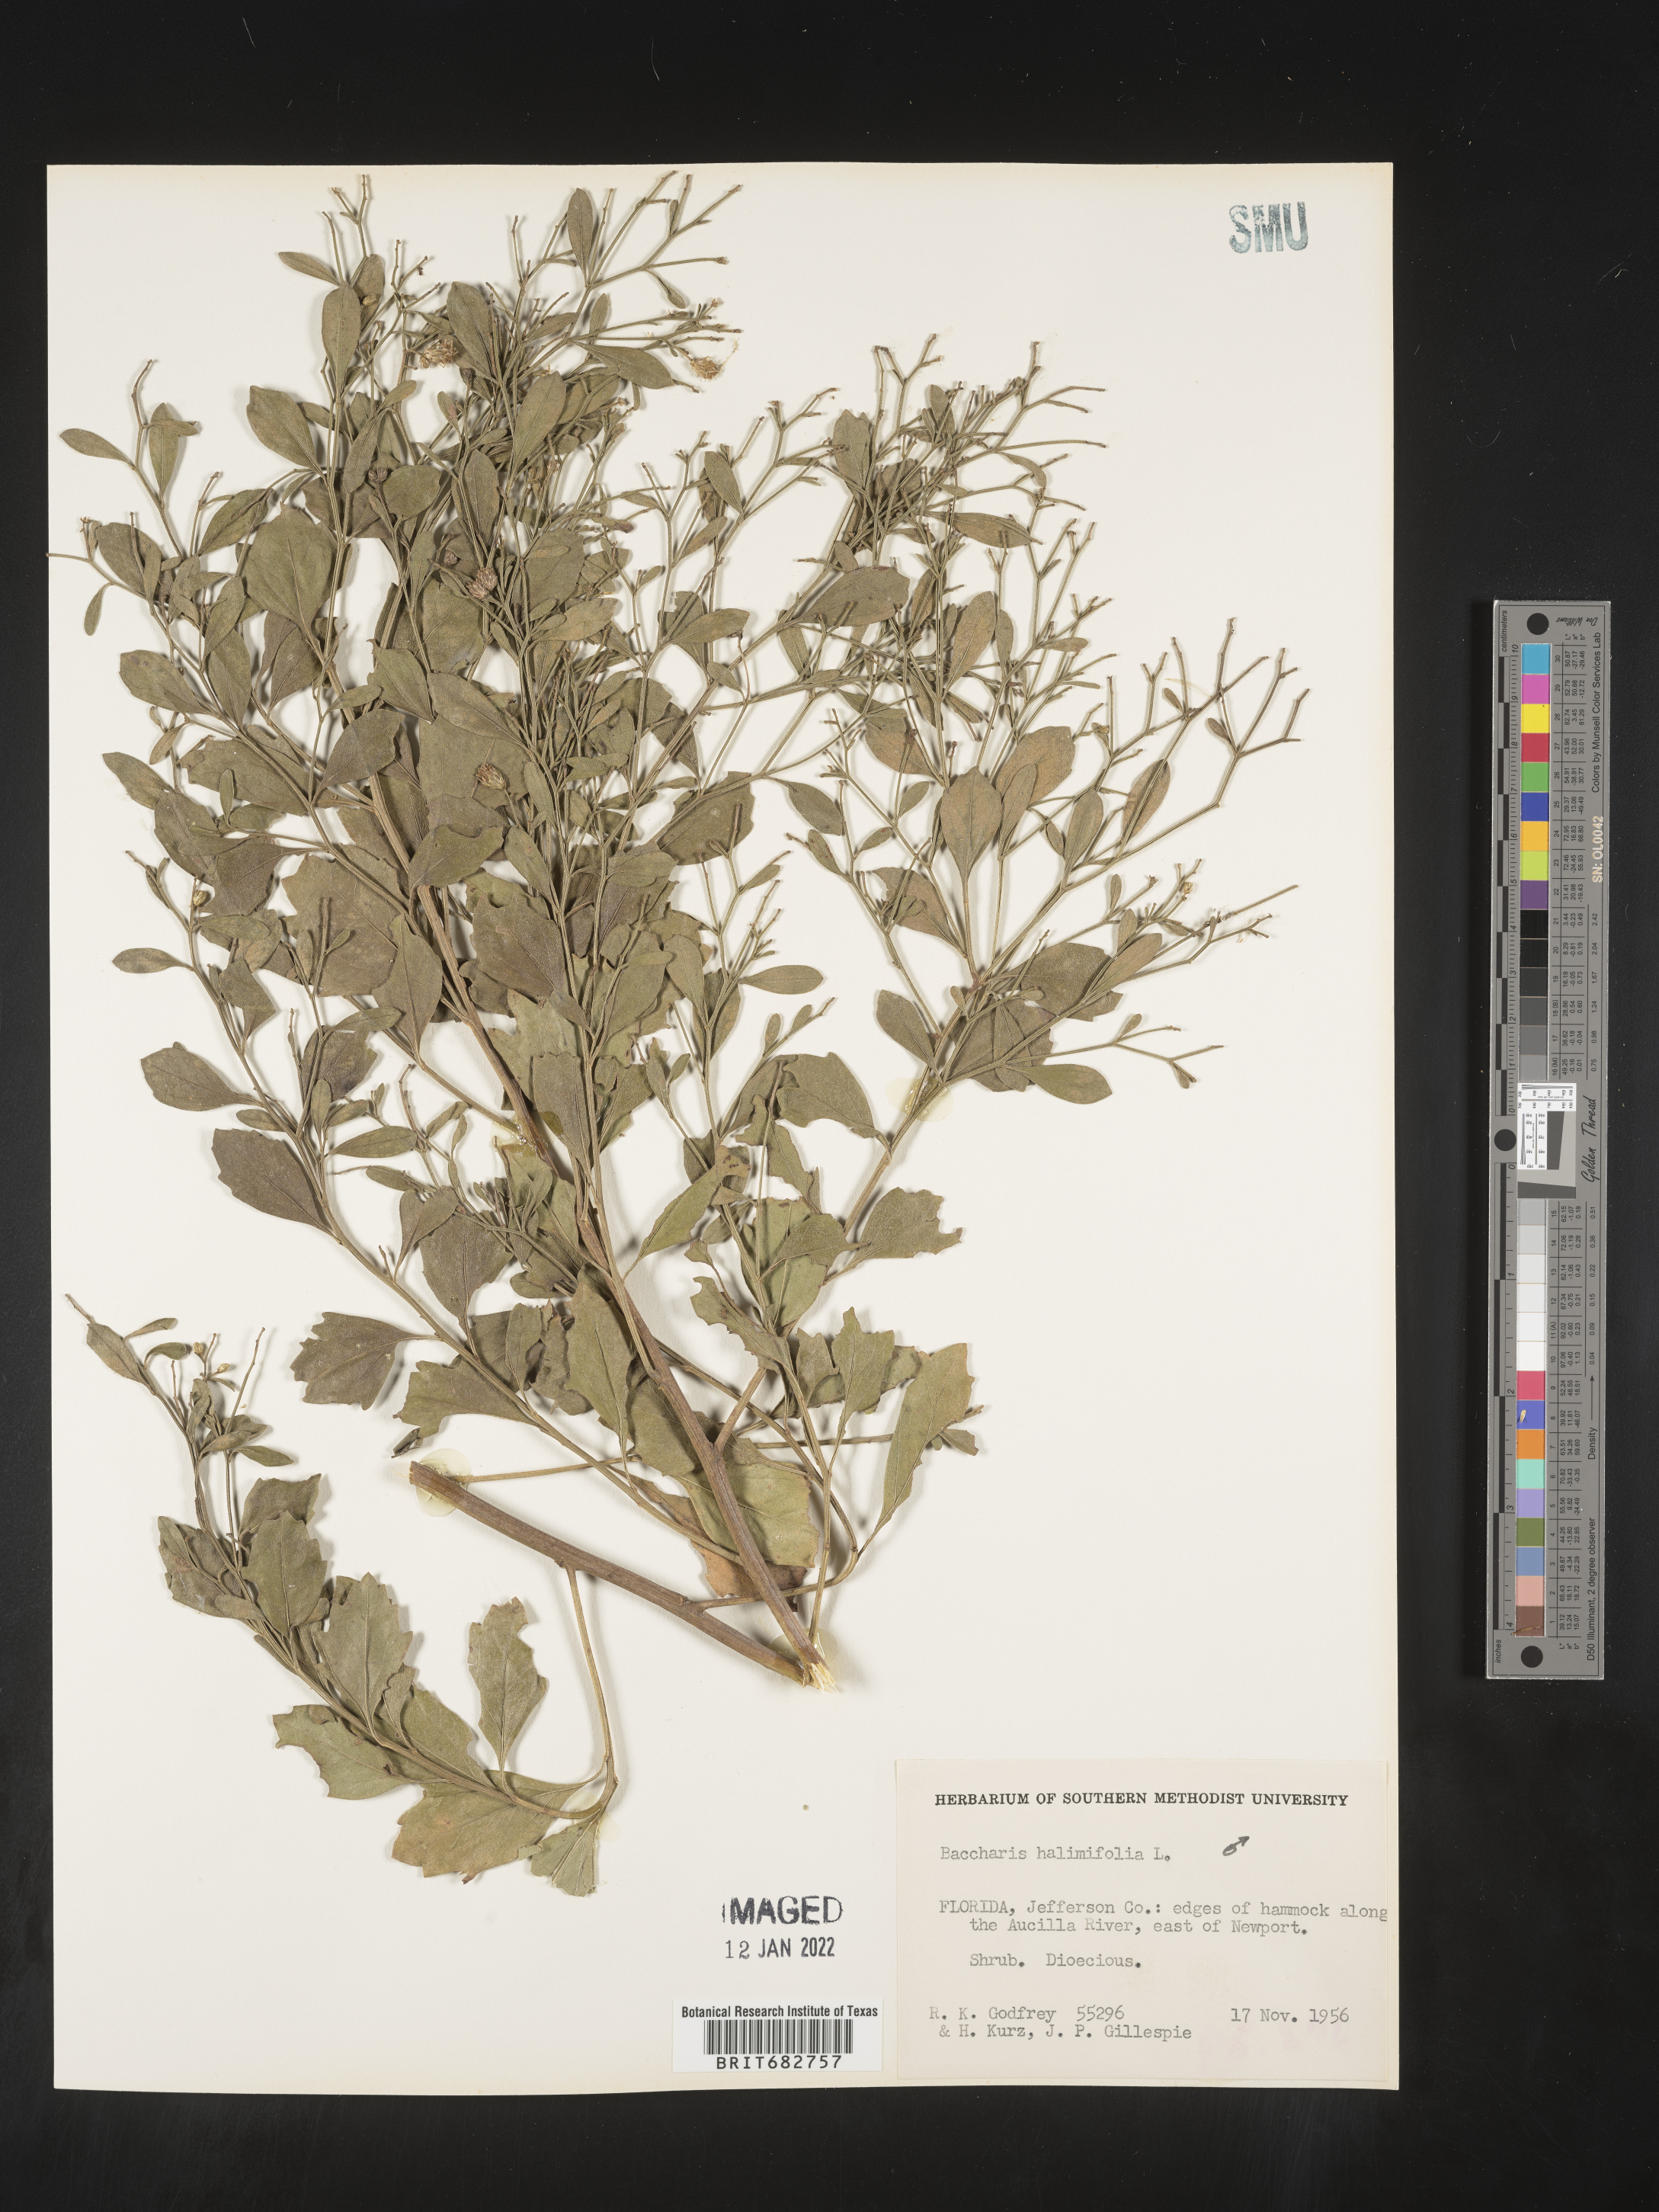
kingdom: Plantae
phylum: Tracheophyta
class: Magnoliopsida
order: Asterales
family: Asteraceae
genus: Nidorella
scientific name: Nidorella ivifolia
